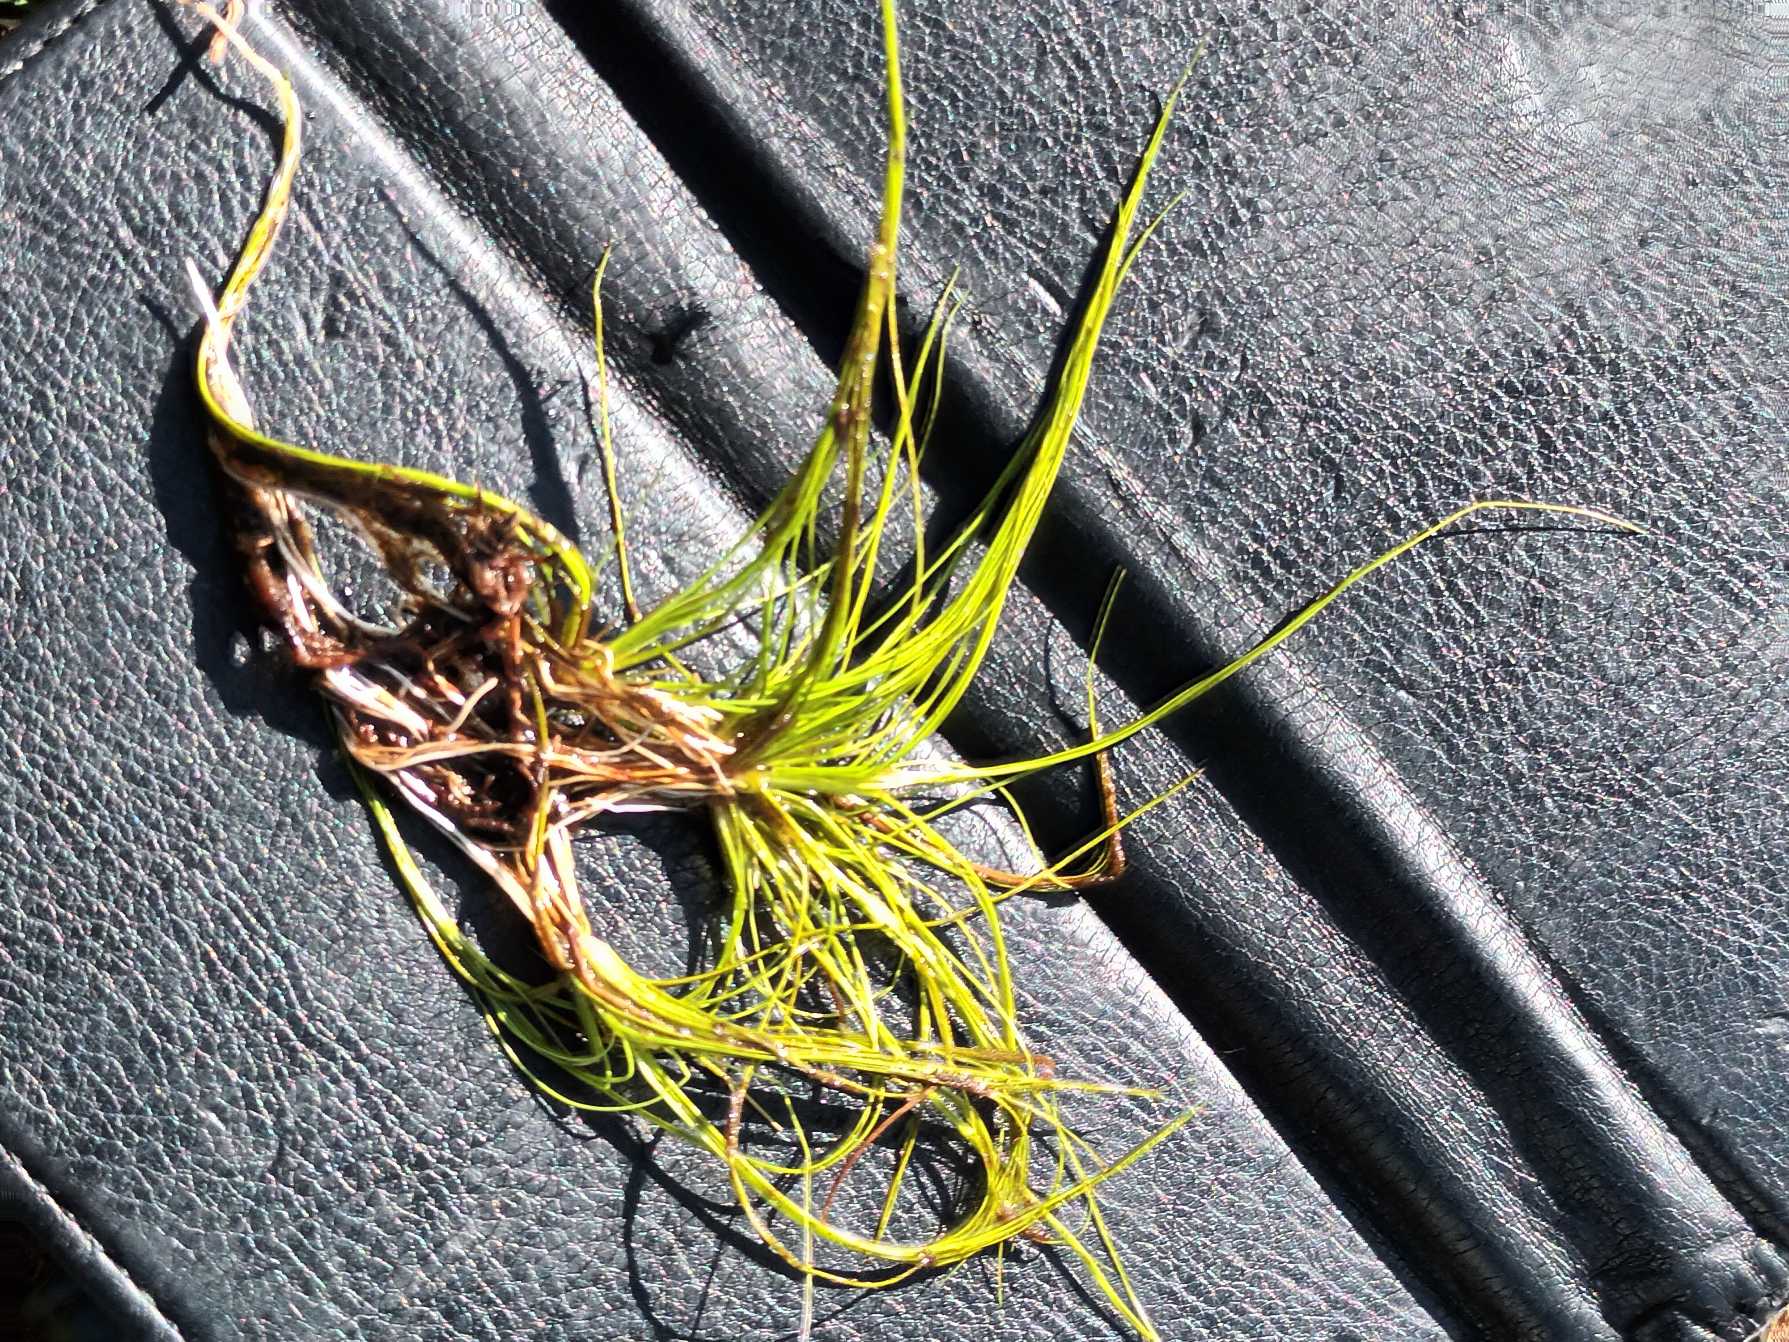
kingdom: Plantae
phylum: Tracheophyta
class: Liliopsida
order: Poales
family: Juncaceae
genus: Juncus
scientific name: Juncus bulbosus
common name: Liden siv
